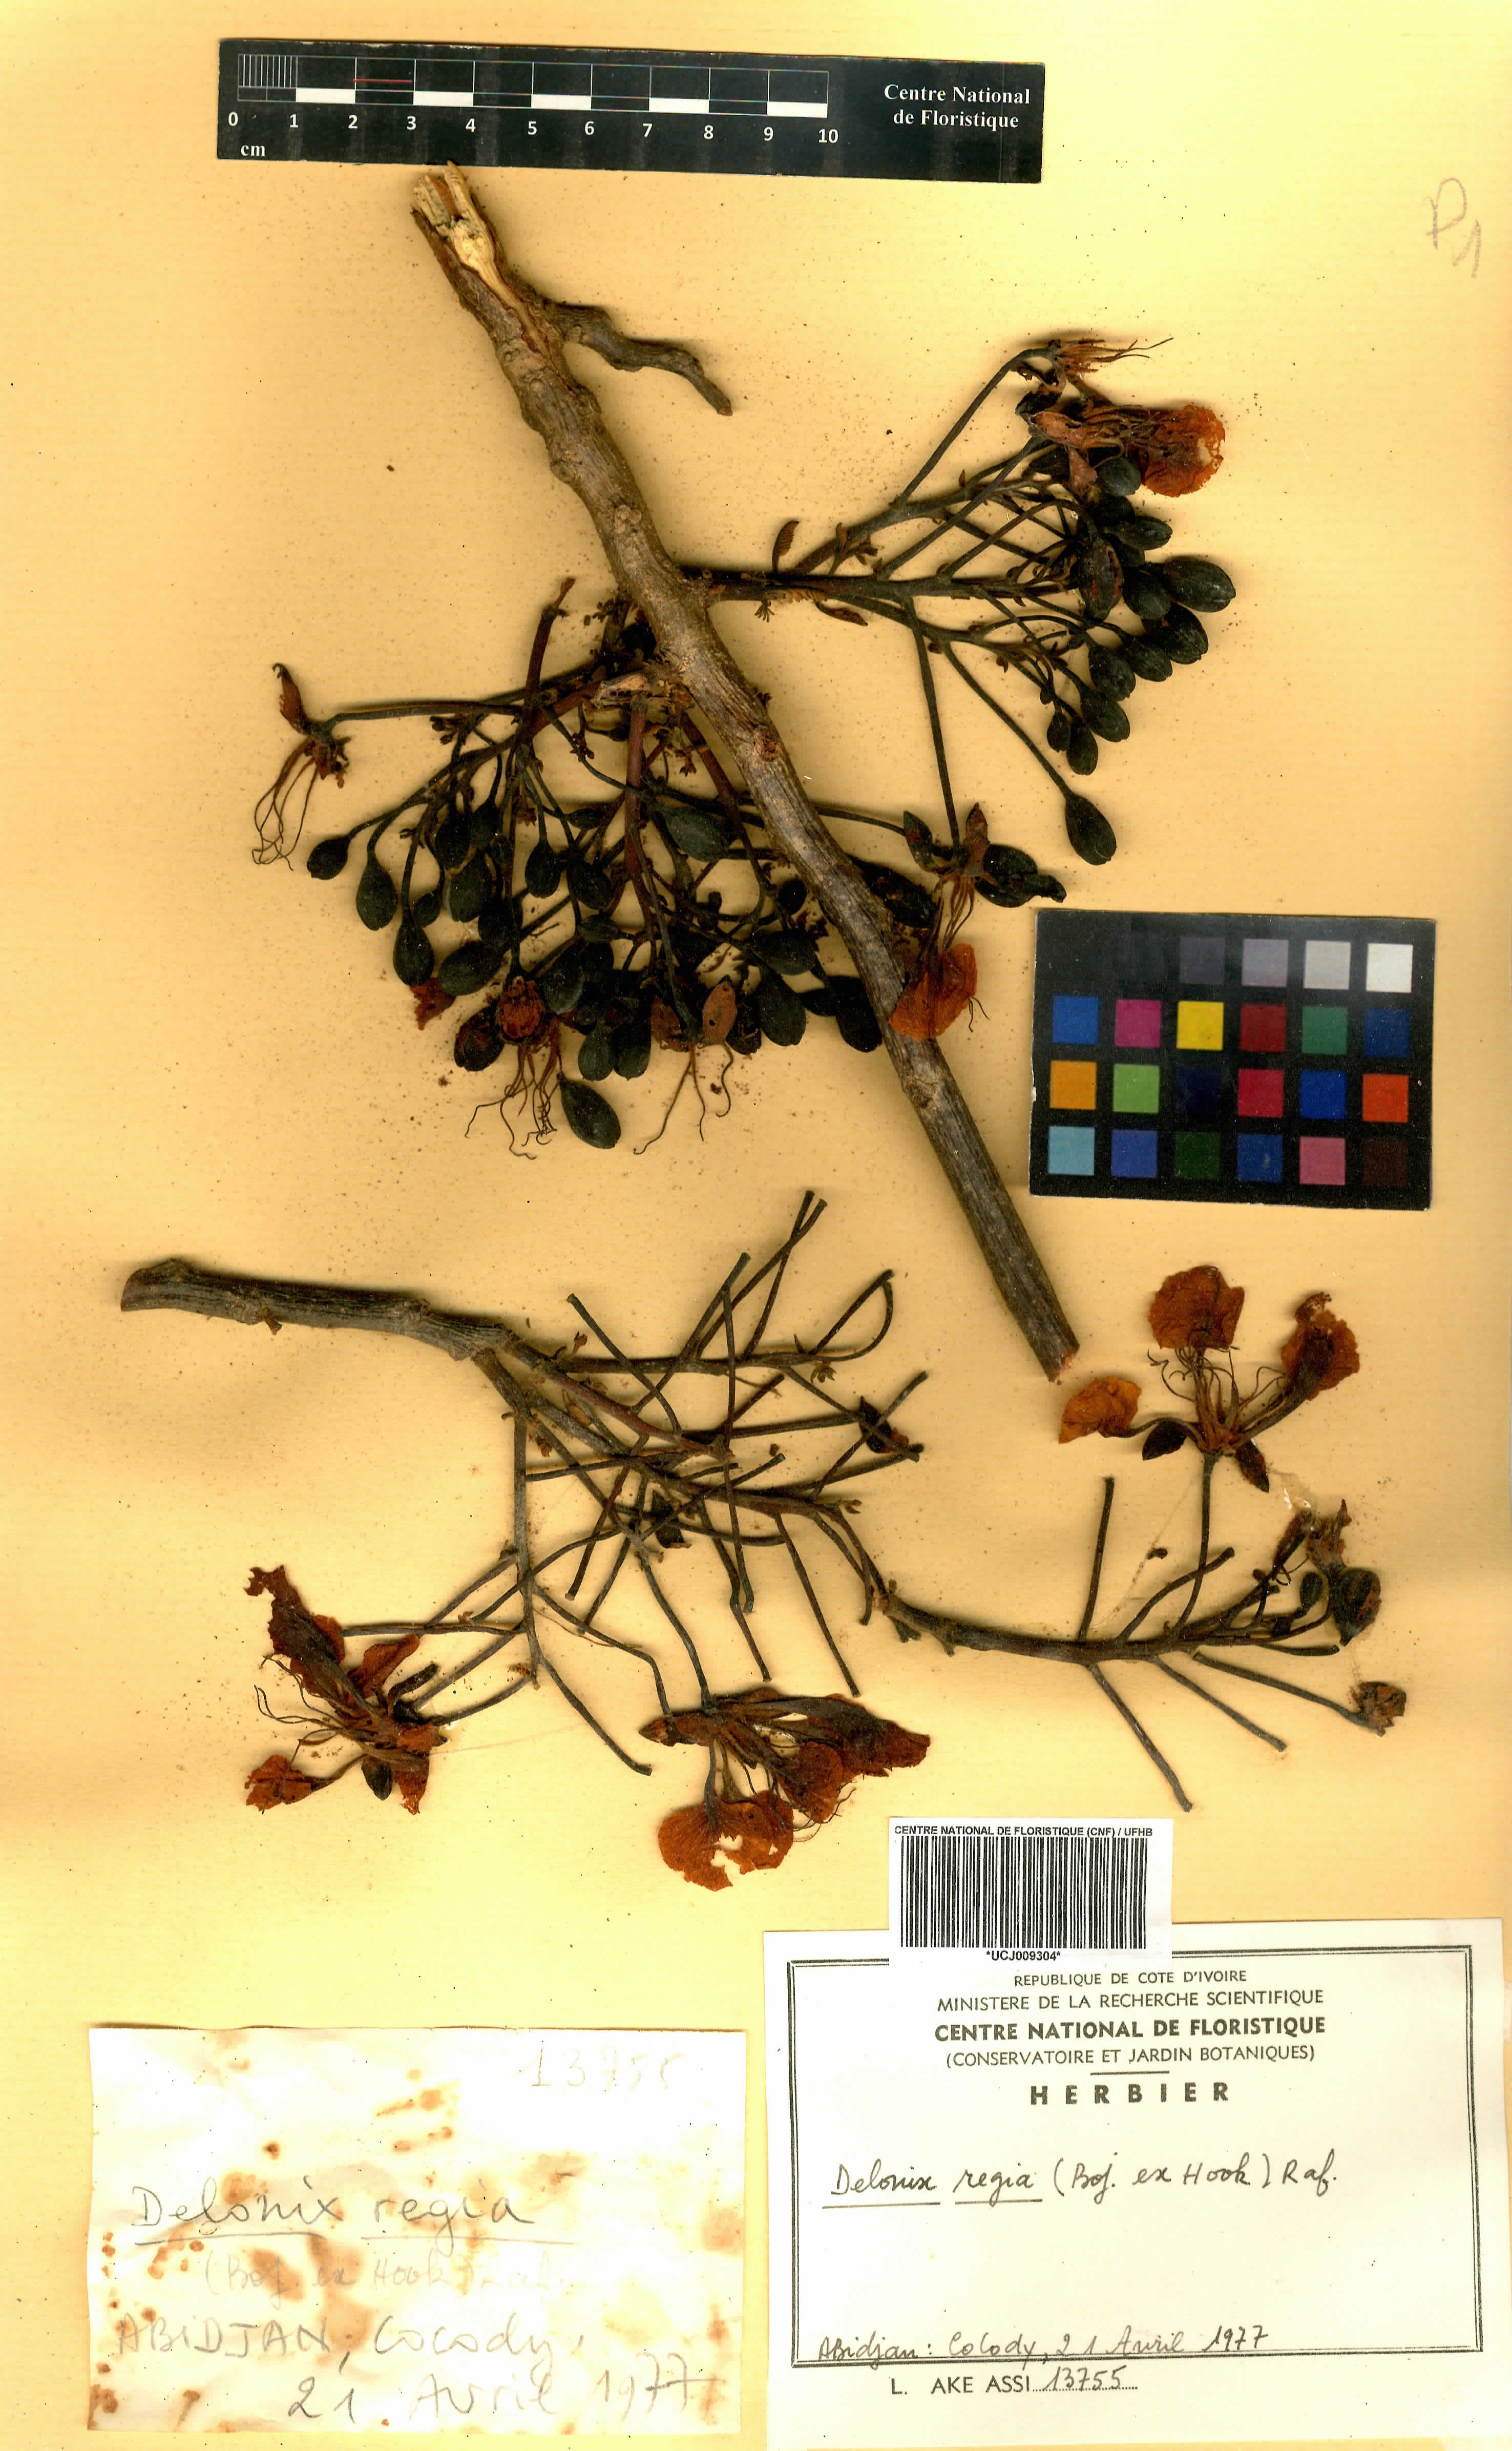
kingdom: Plantae
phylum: Tracheophyta
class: Magnoliopsida
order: Fabales
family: Fabaceae
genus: Delonix
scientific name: Delonix regia
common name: Royal poinciana
